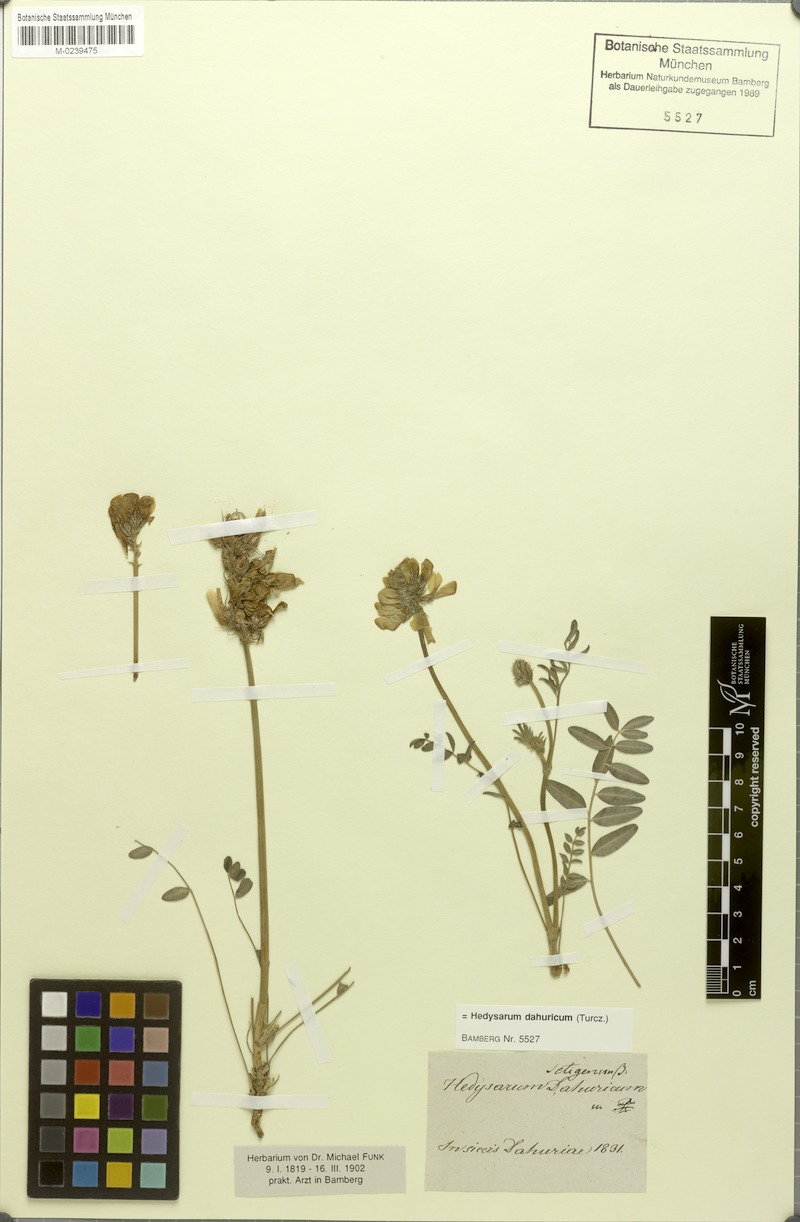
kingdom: Plantae
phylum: Tracheophyta
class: Magnoliopsida
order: Fabales
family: Fabaceae
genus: Hedysarum
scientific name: Hedysarum dahuricum
